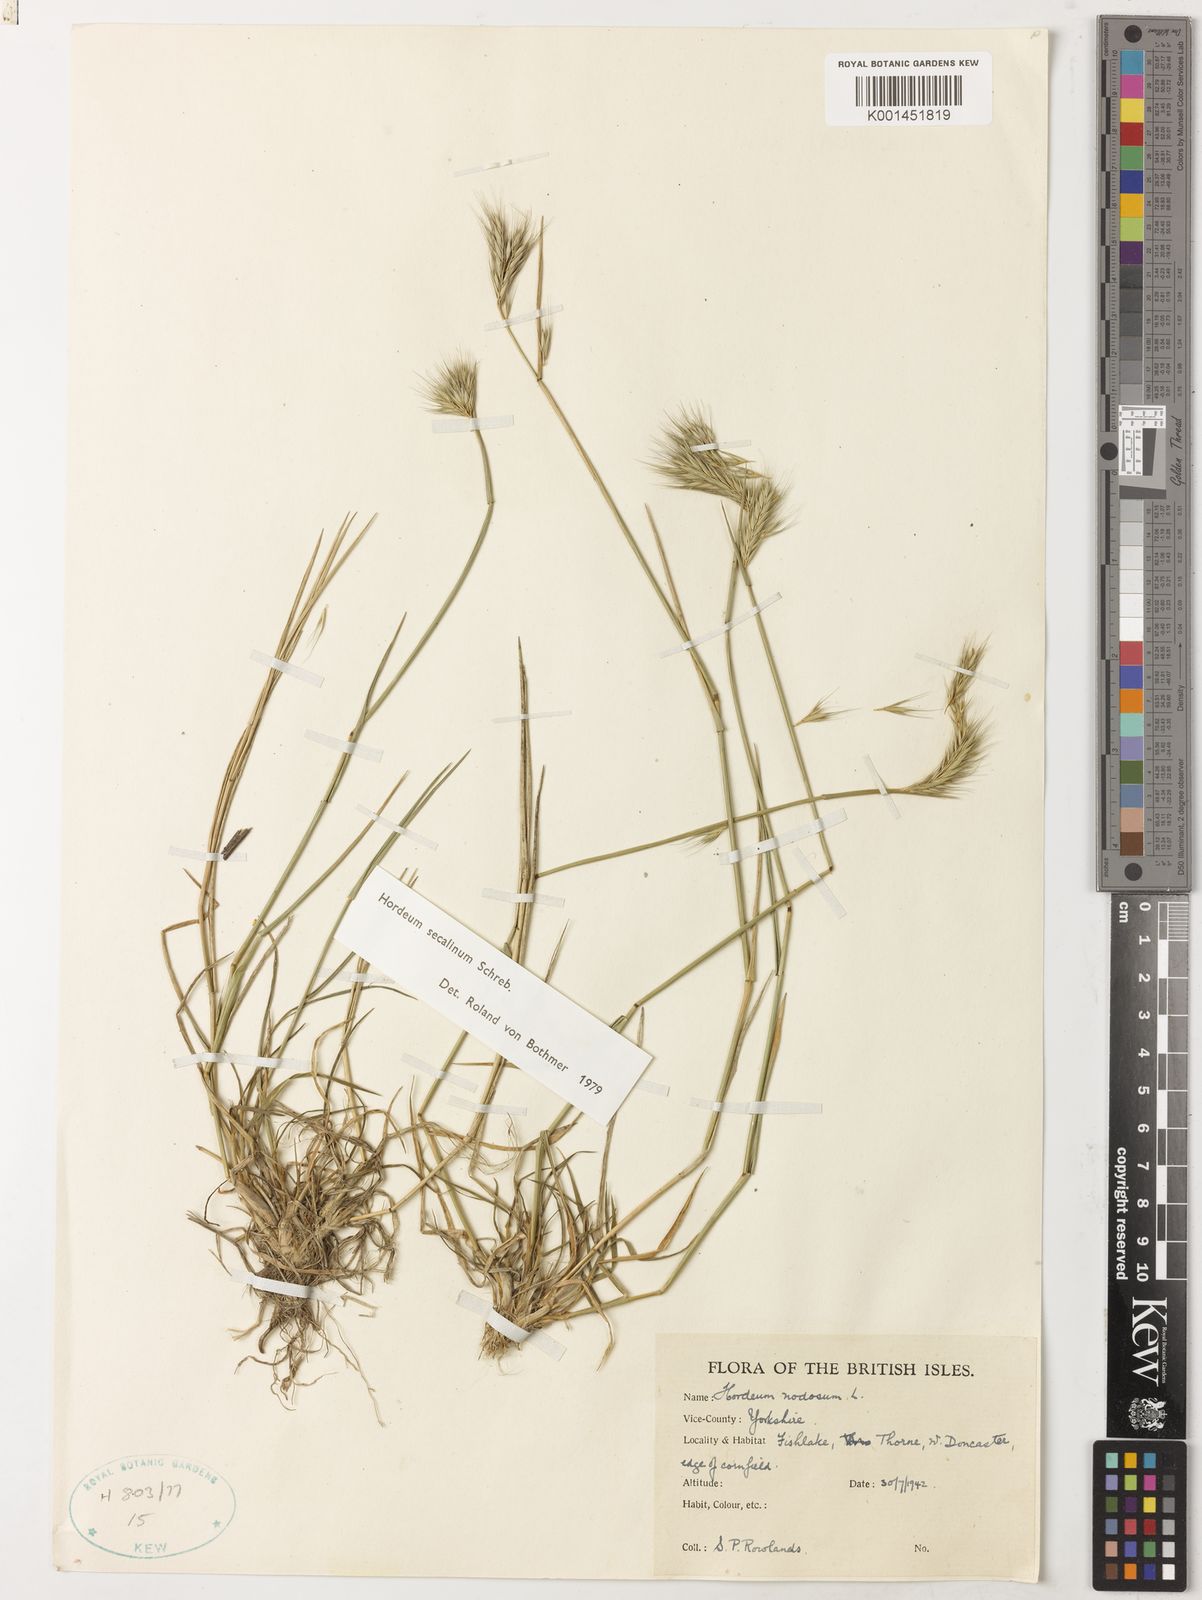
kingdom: Plantae
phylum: Tracheophyta
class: Liliopsida
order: Poales
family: Poaceae
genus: Hordeum
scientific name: Hordeum secalinum
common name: Meadow barley
